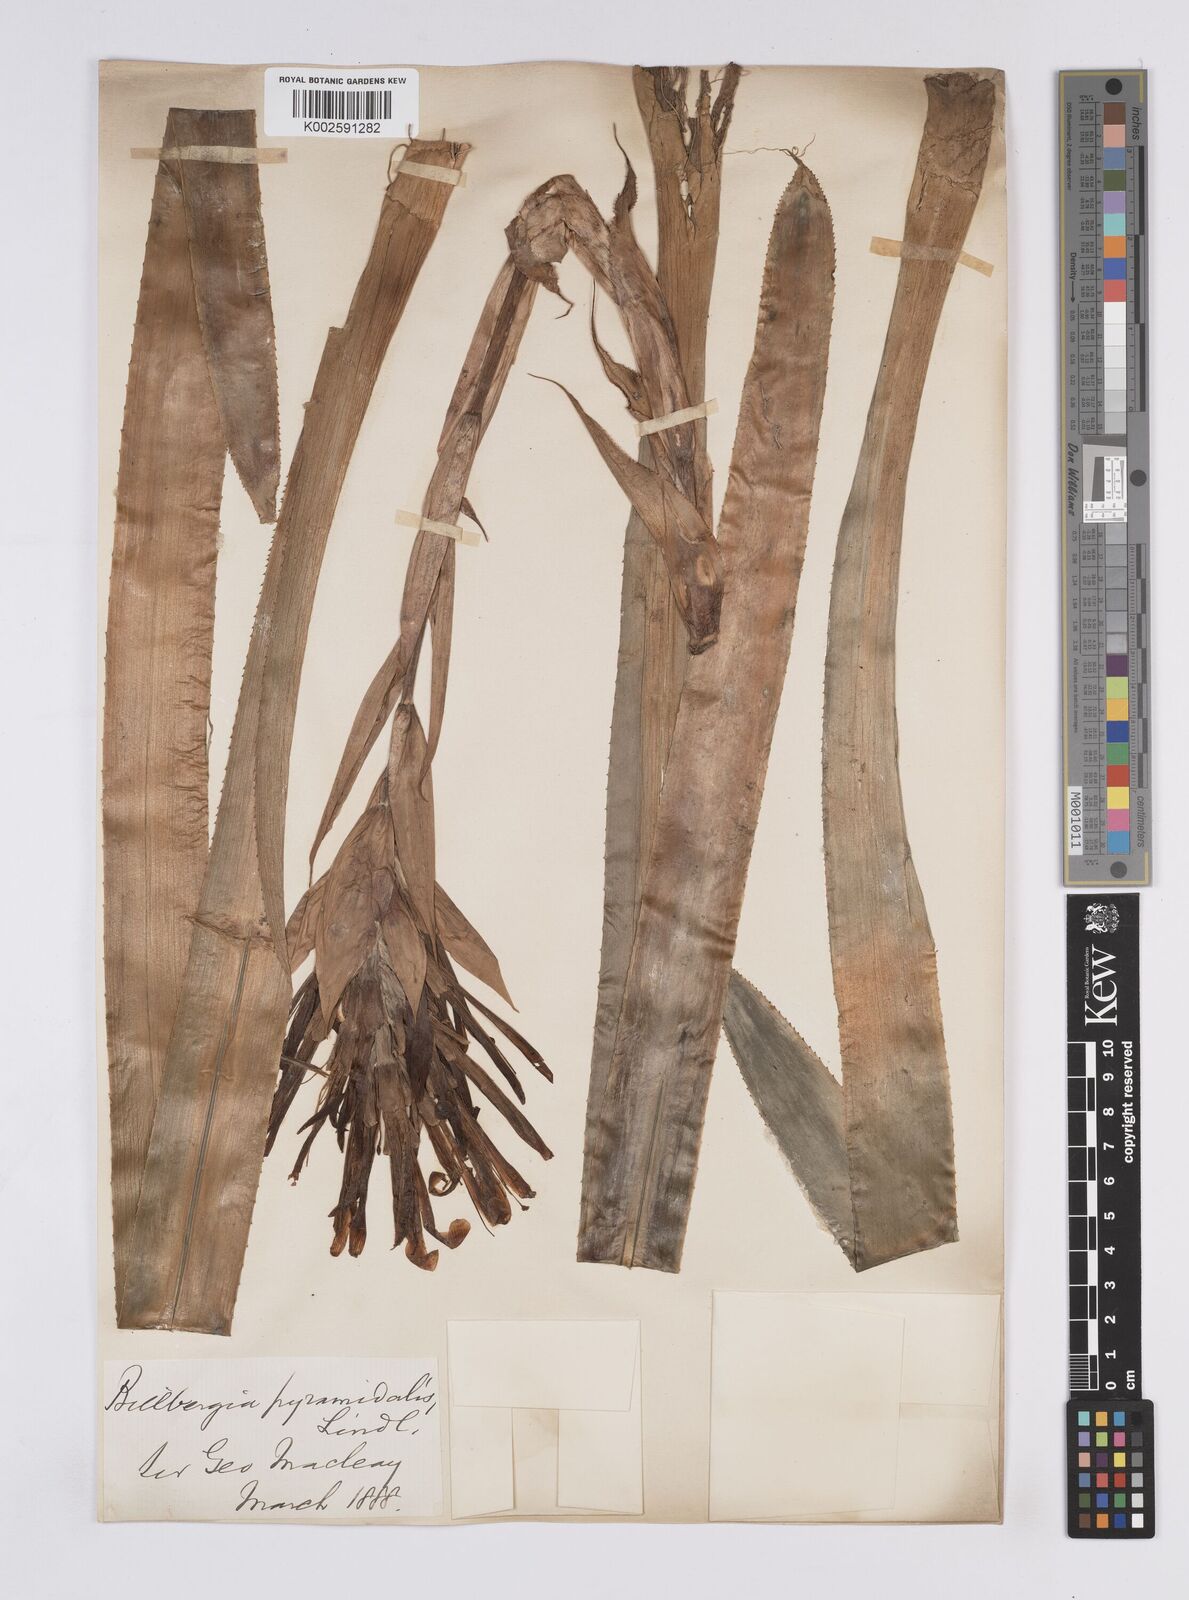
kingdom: Plantae
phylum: Tracheophyta
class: Liliopsida
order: Poales
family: Bromeliaceae
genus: Billbergia
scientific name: Billbergia pyramidalis
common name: Foolproofplant
